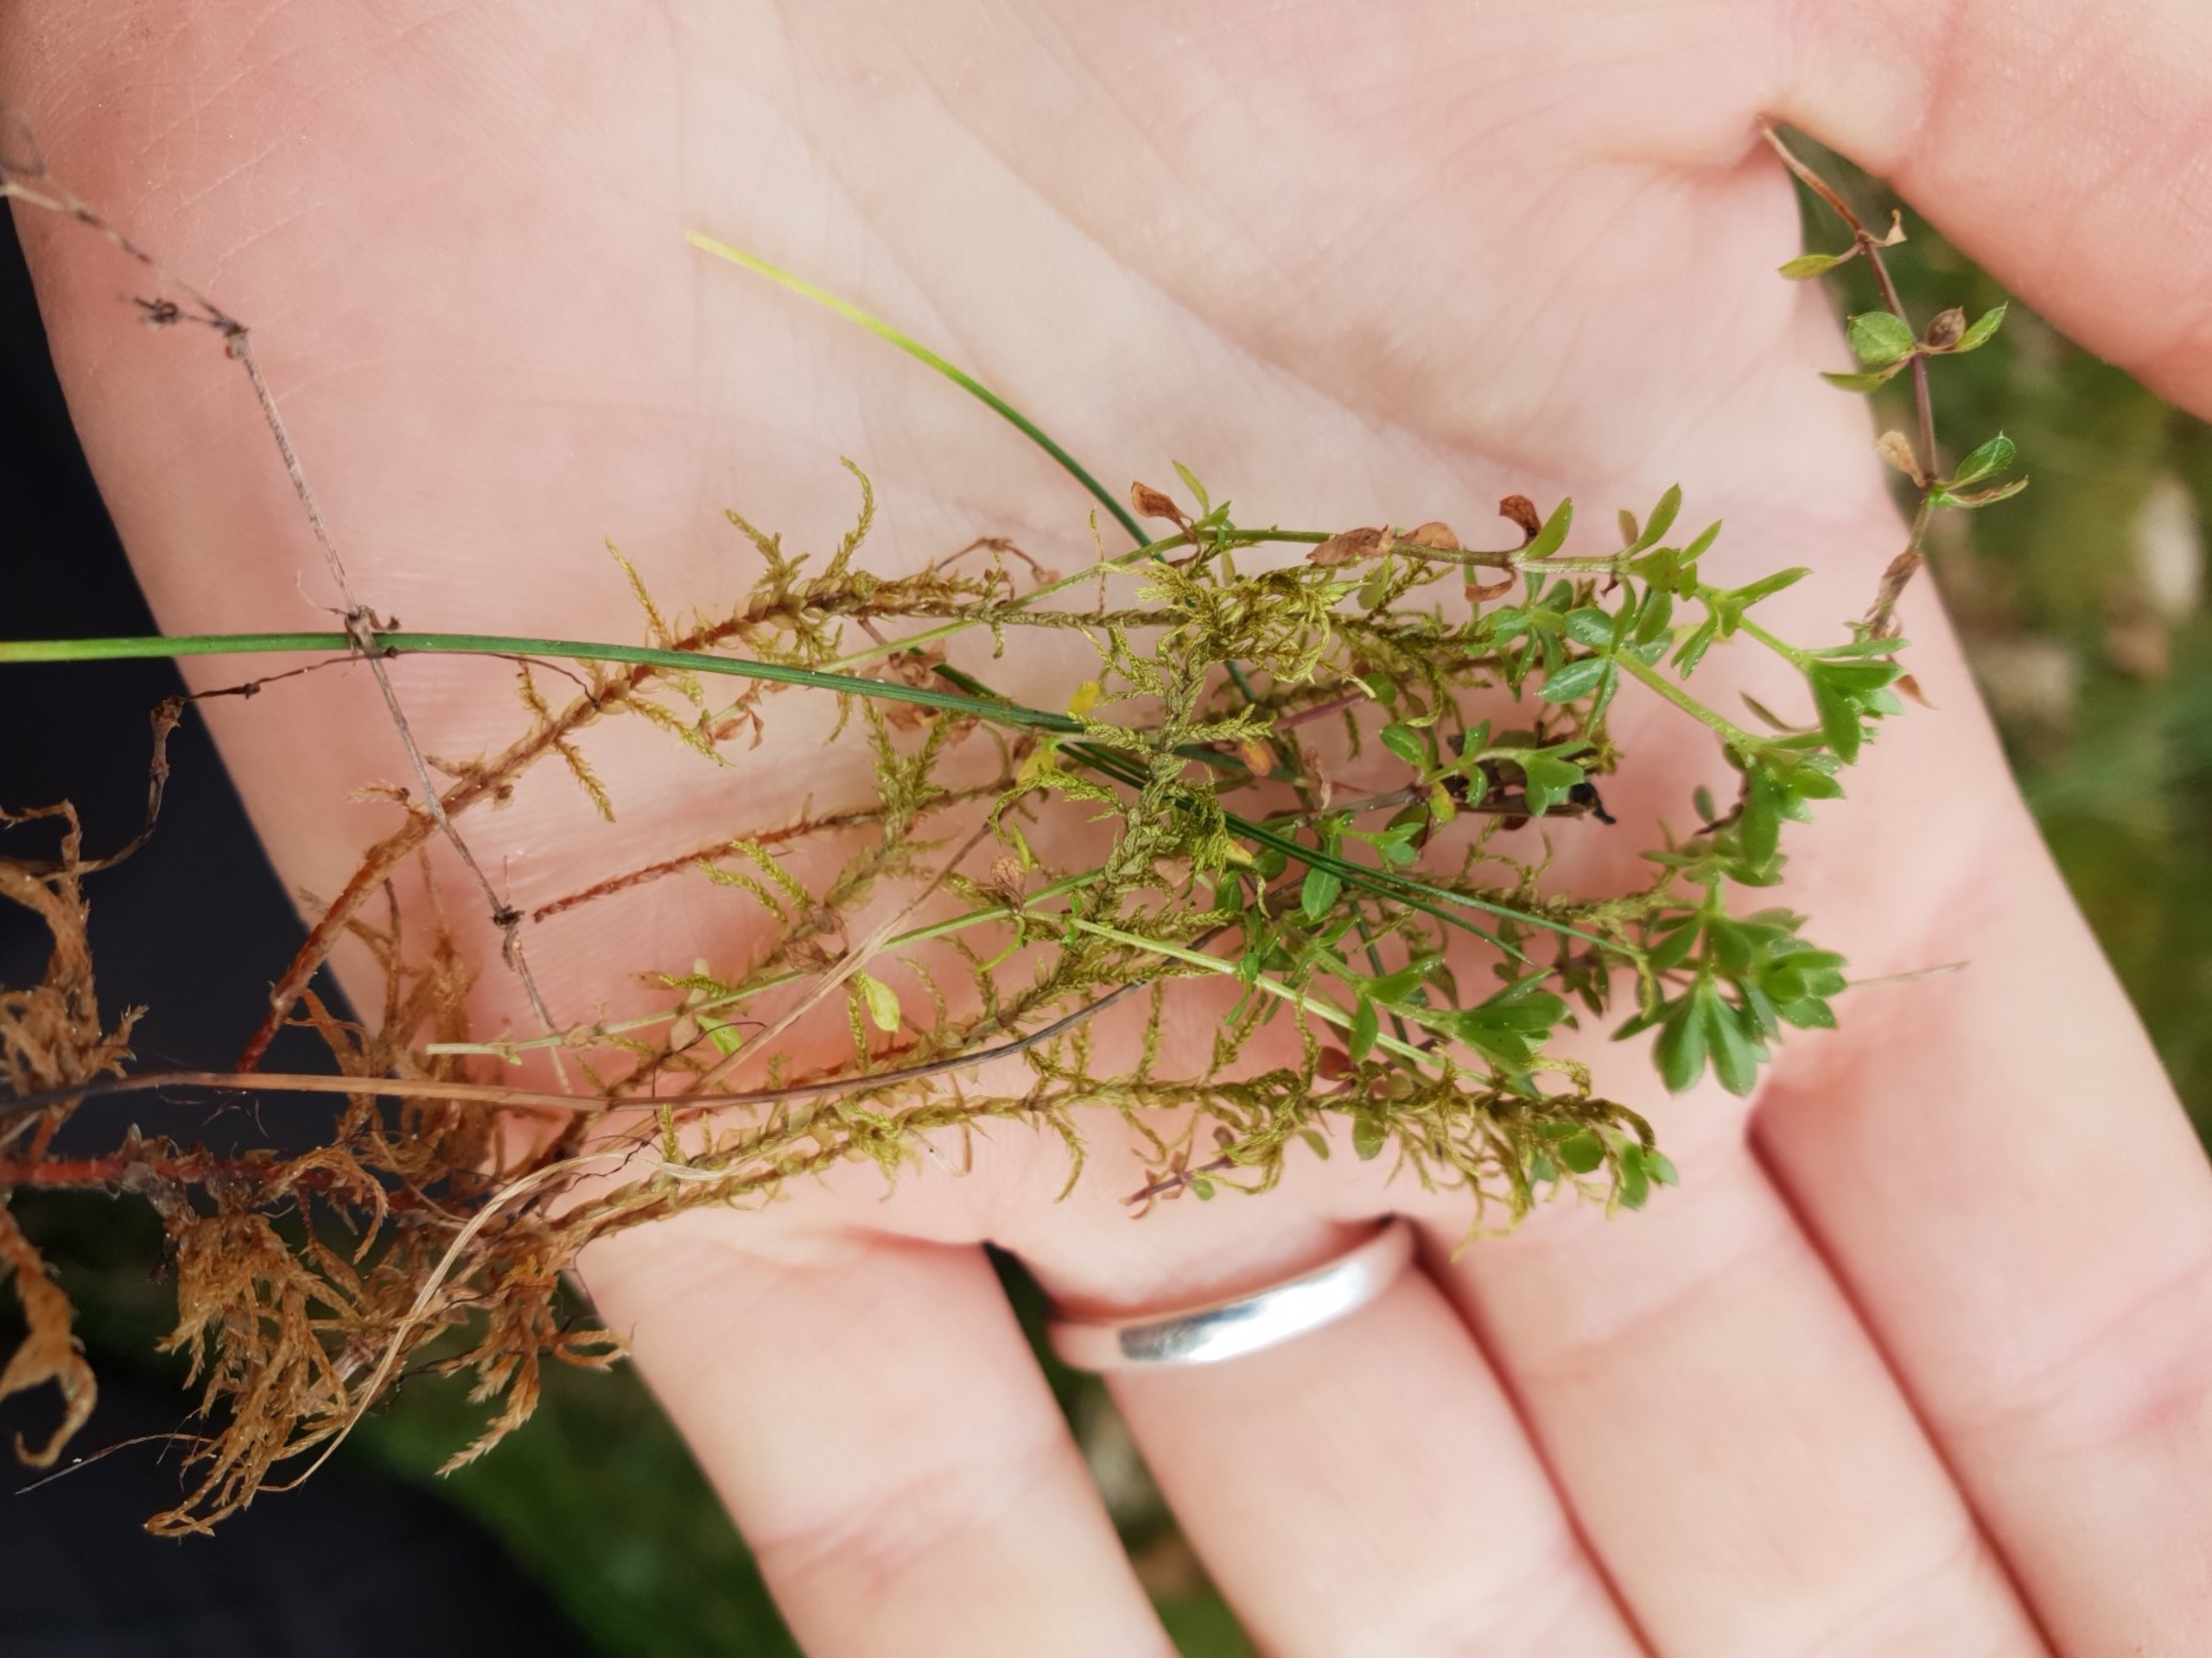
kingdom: Plantae
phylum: Tracheophyta
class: Magnoliopsida
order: Gentianales
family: Rubiaceae
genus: Galium
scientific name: Galium saxatile
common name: Lyng-snerre
